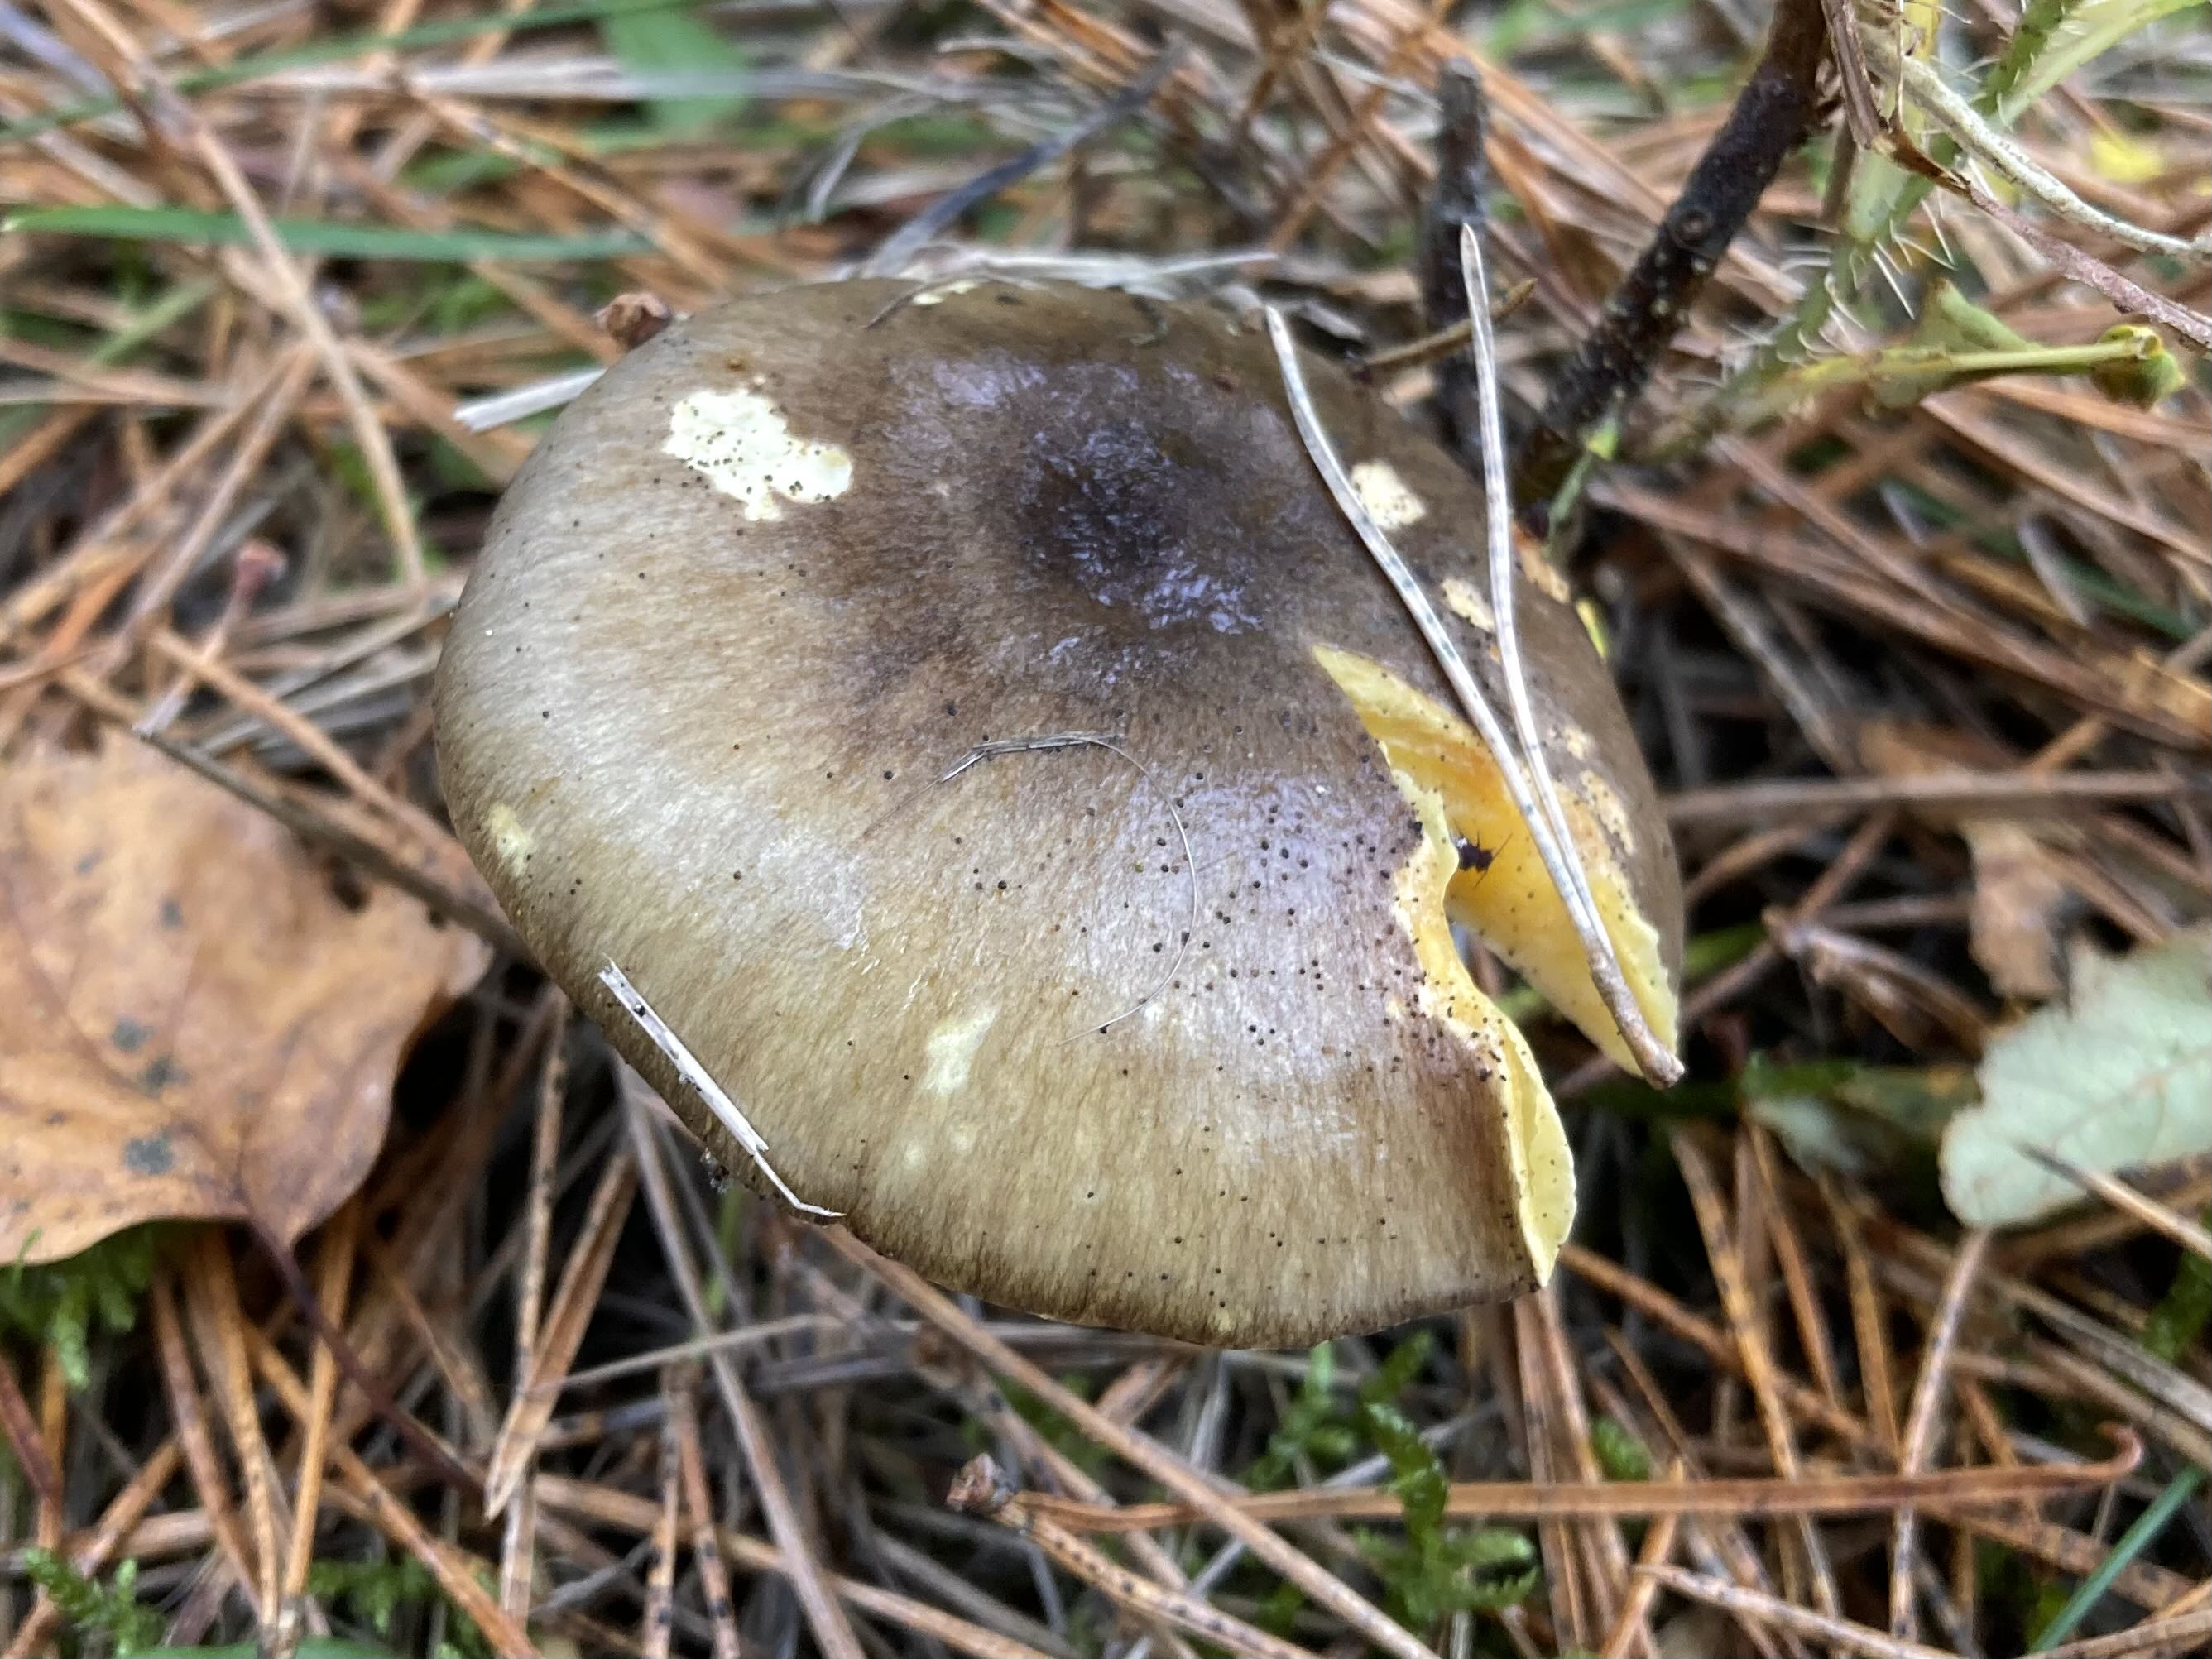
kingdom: Fungi
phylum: Basidiomycota
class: Agaricomycetes
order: Agaricales
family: Hygrophoraceae
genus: Hygrophorus
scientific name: Hygrophorus hypothejus
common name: frost-sneglehat
